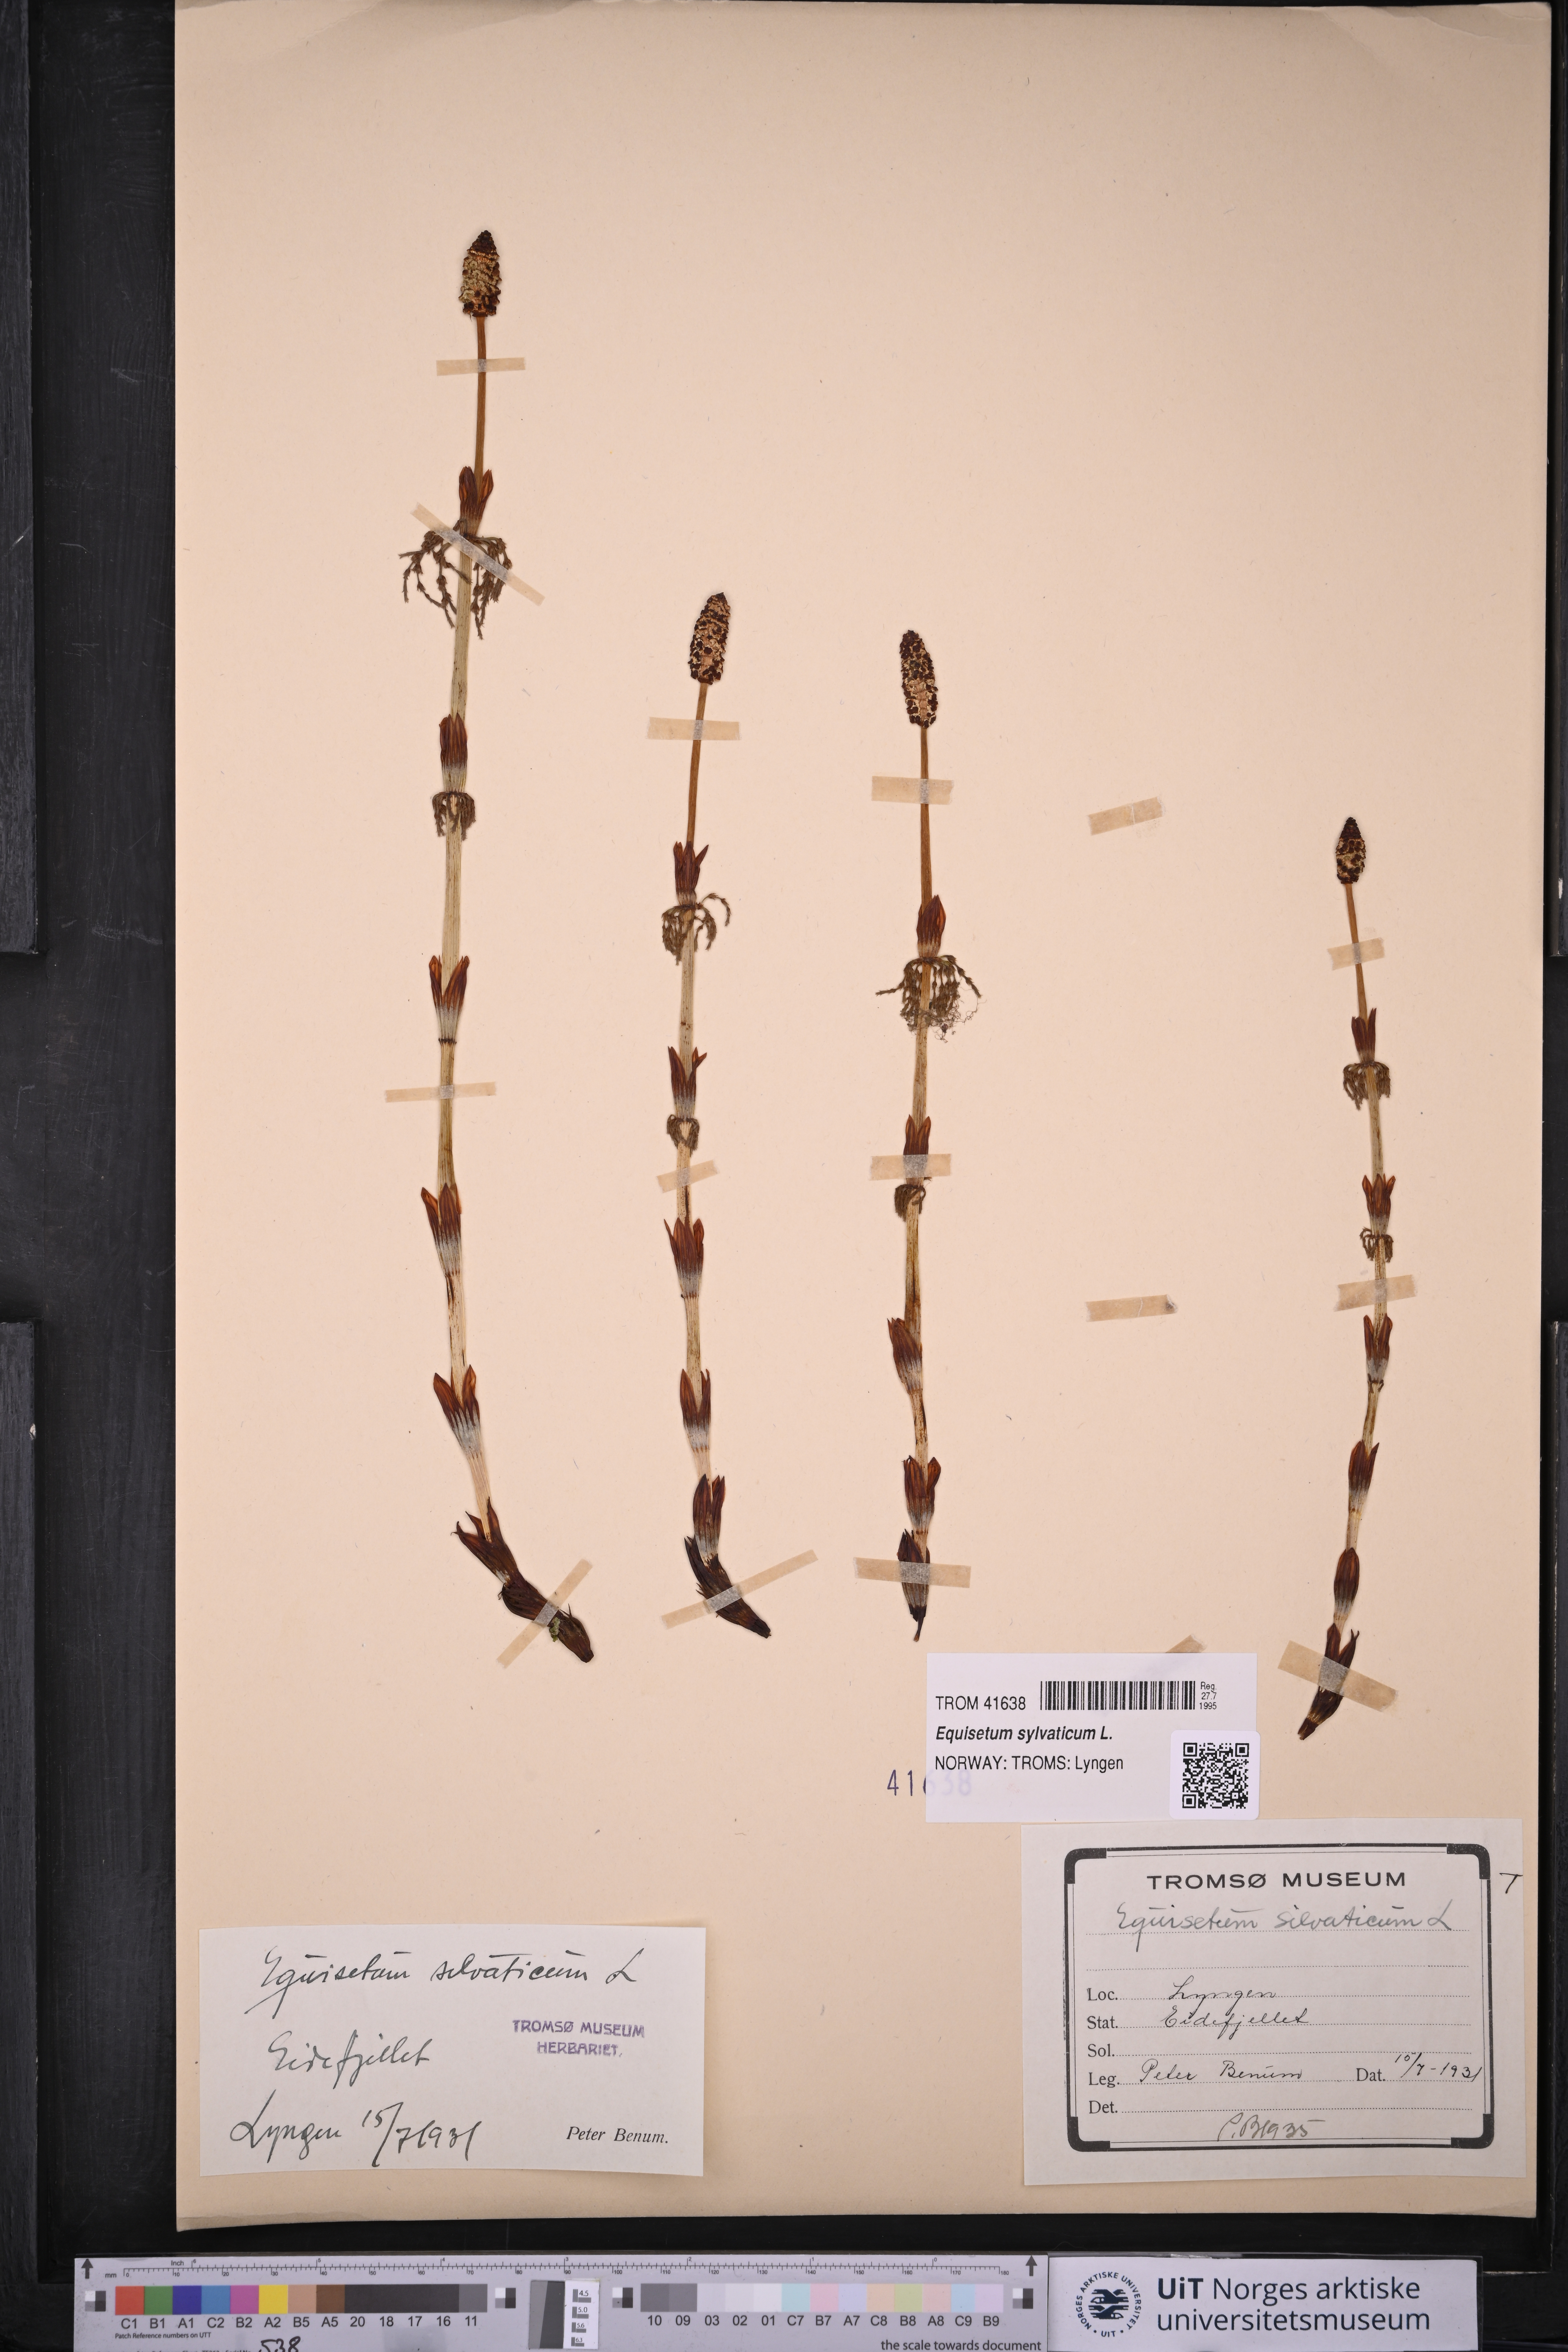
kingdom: Plantae
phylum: Tracheophyta
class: Polypodiopsida
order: Equisetales
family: Equisetaceae
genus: Equisetum
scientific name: Equisetum sylvaticum
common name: Wood horsetail
